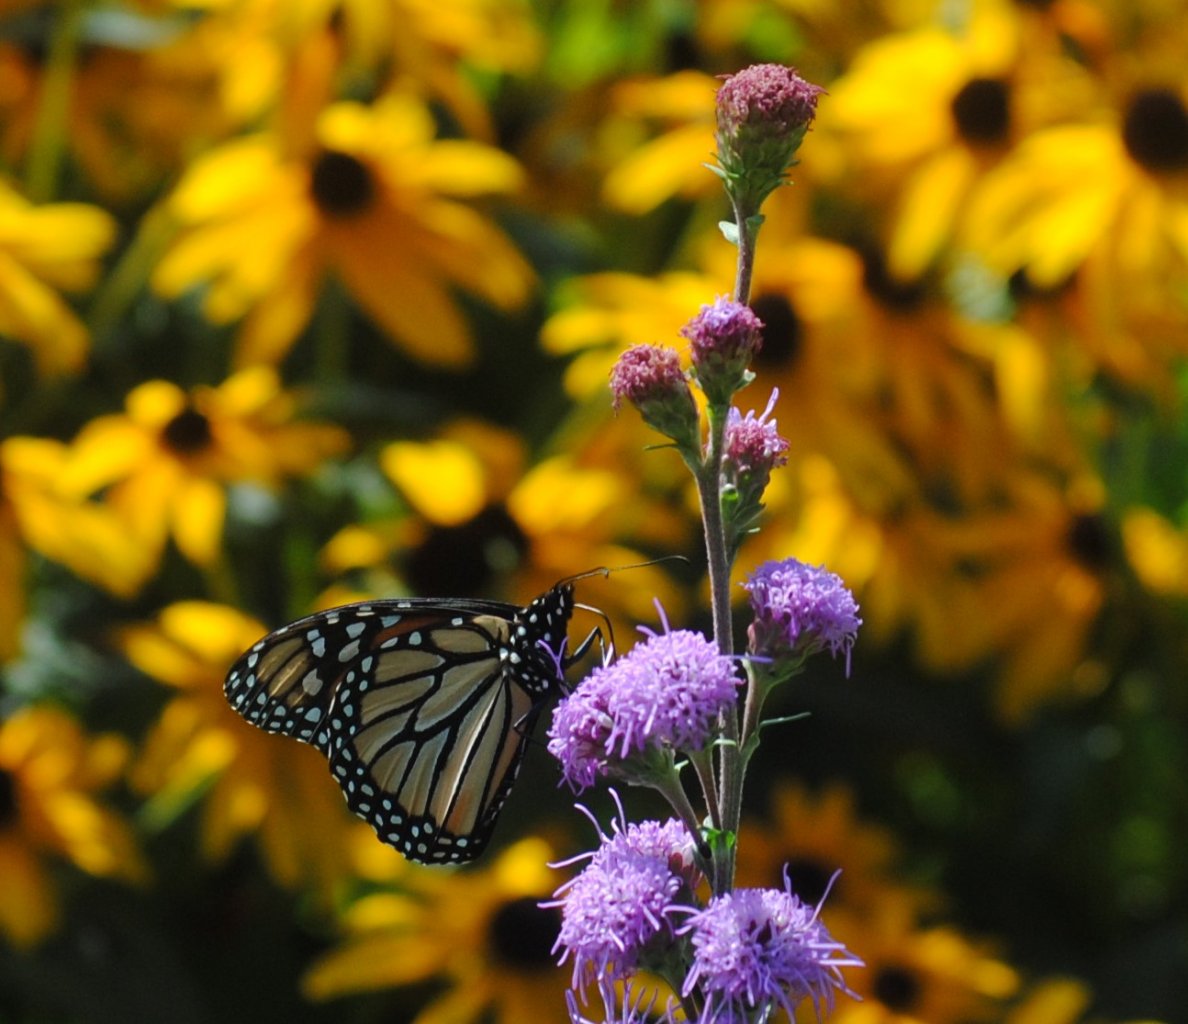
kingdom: Animalia
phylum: Arthropoda
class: Insecta
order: Lepidoptera
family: Nymphalidae
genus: Danaus
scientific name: Danaus plexippus
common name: Monarch
